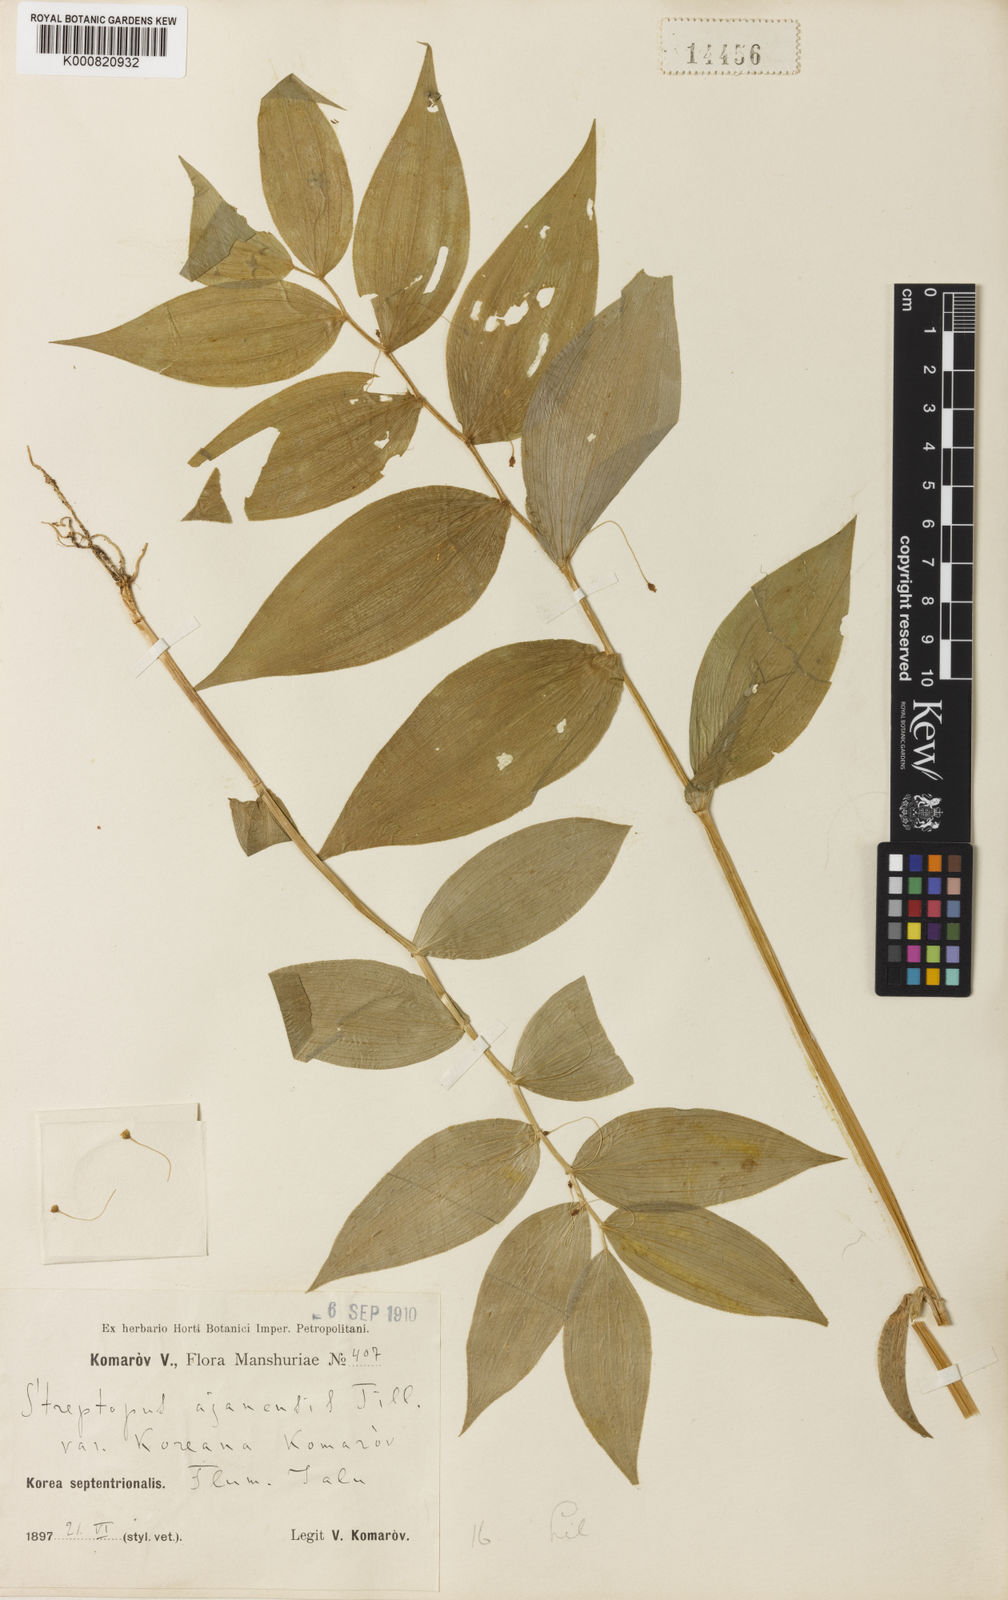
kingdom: Plantae
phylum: Tracheophyta
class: Liliopsida
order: Liliales
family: Liliaceae
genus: Streptopus
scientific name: Streptopus koreanus
